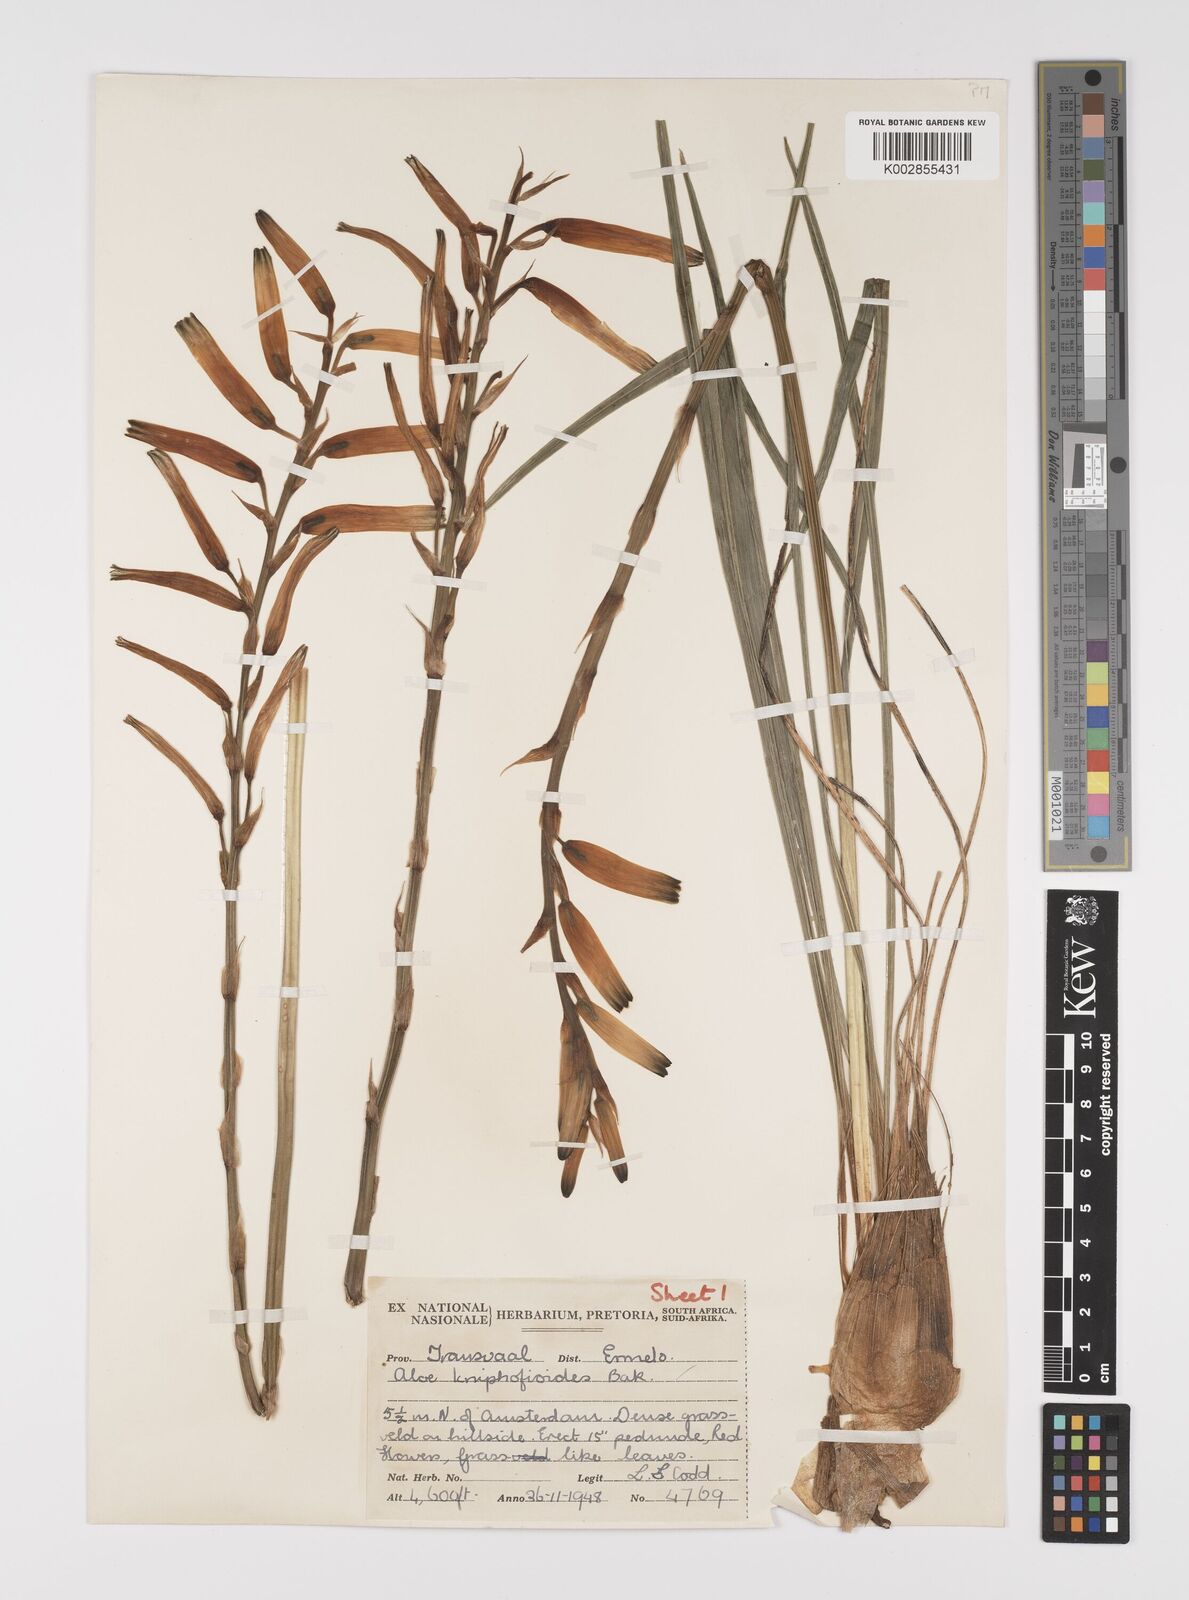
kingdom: Plantae
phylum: Tracheophyta
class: Liliopsida
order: Asparagales
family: Asphodelaceae
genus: Aloe
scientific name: Aloe kniphofioides
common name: Grass aloe
